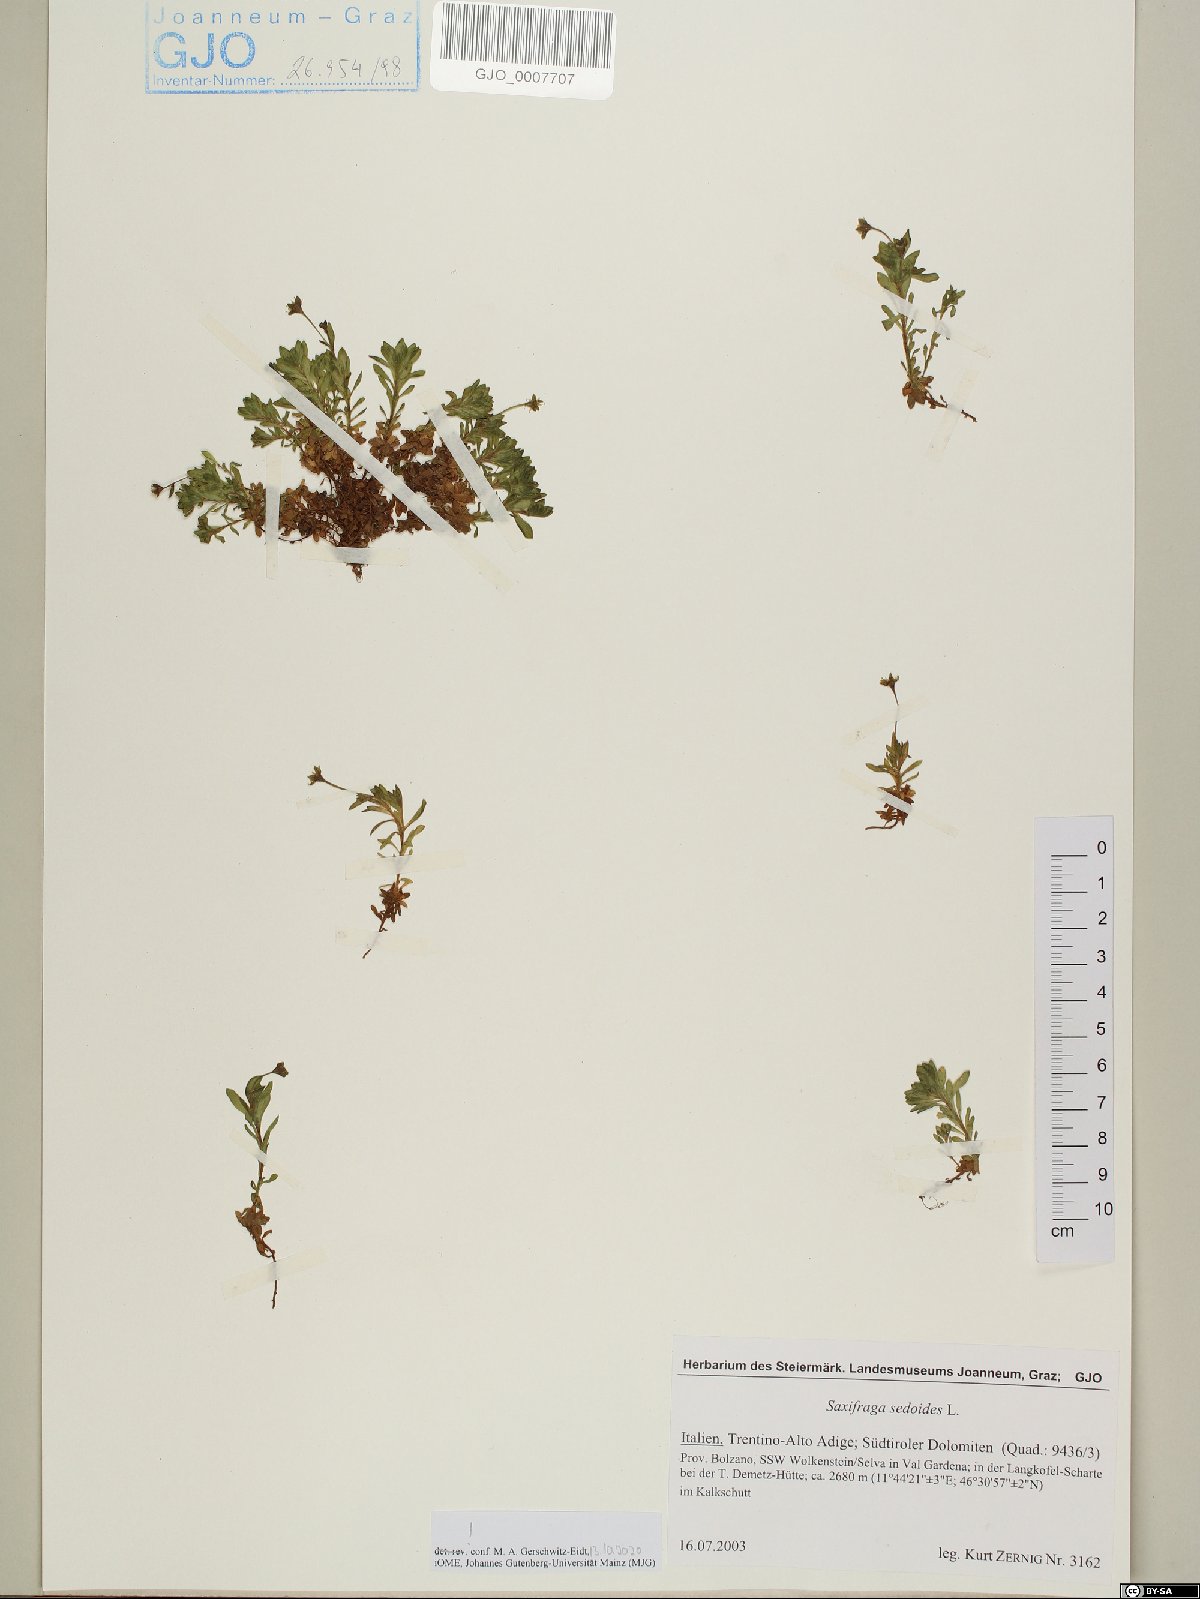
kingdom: Plantae
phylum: Tracheophyta
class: Magnoliopsida
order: Saxifragales
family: Saxifragaceae
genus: Saxifraga
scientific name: Saxifraga sedoides
